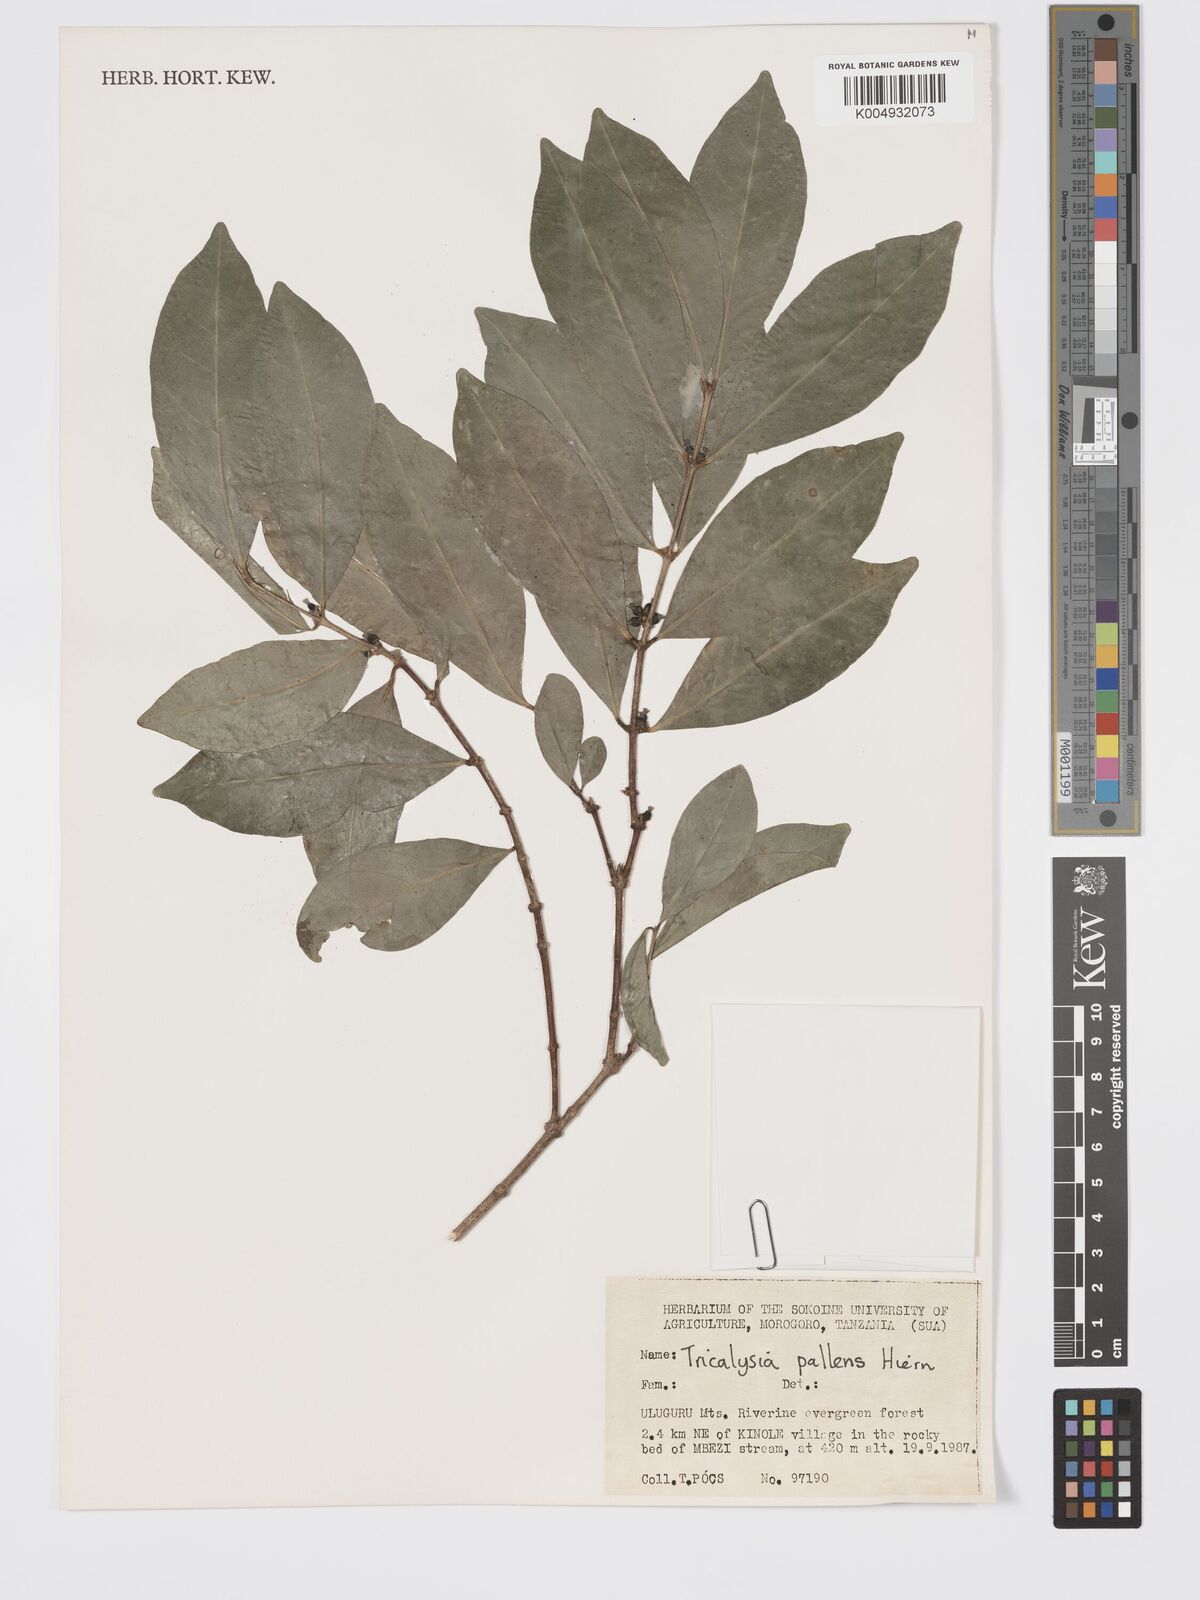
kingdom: Plantae
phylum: Tracheophyta
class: Magnoliopsida
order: Gentianales
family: Rubiaceae
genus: Tricalysia
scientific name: Tricalysia pallens
